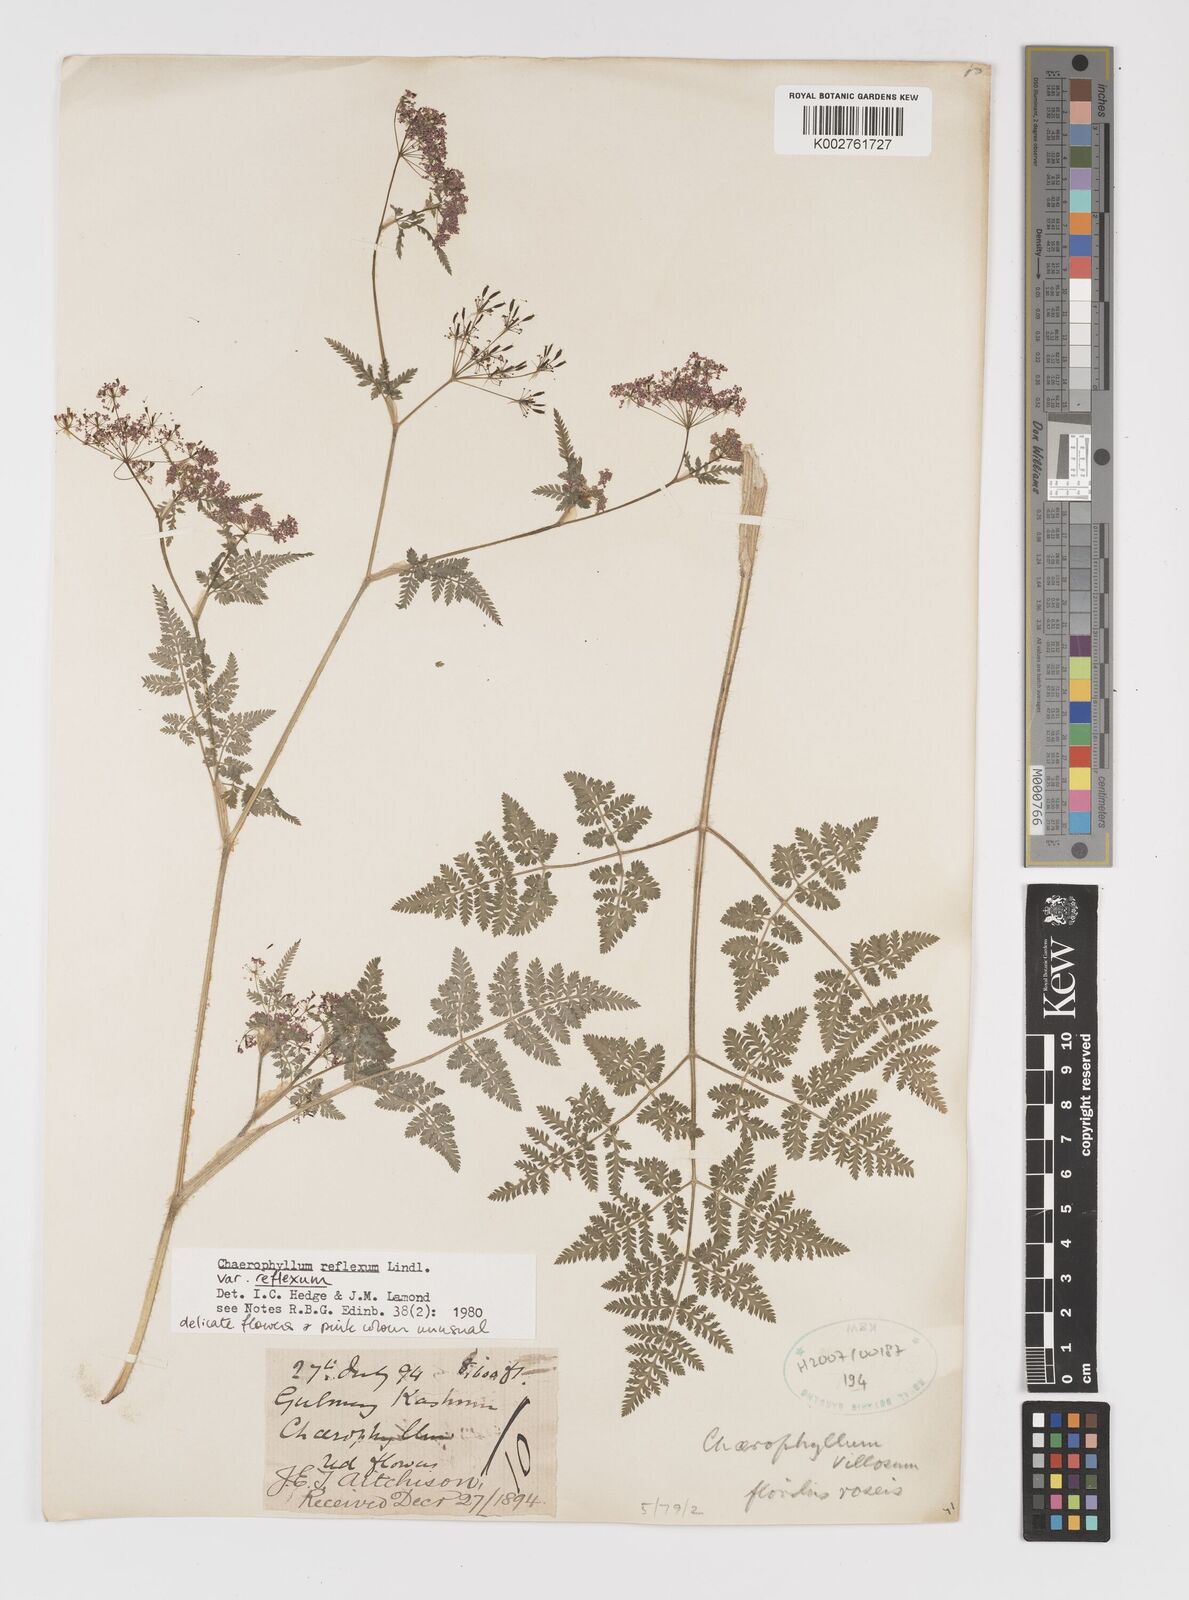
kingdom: Plantae
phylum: Tracheophyta
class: Magnoliopsida
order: Apiales
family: Apiaceae
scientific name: Apiaceae
